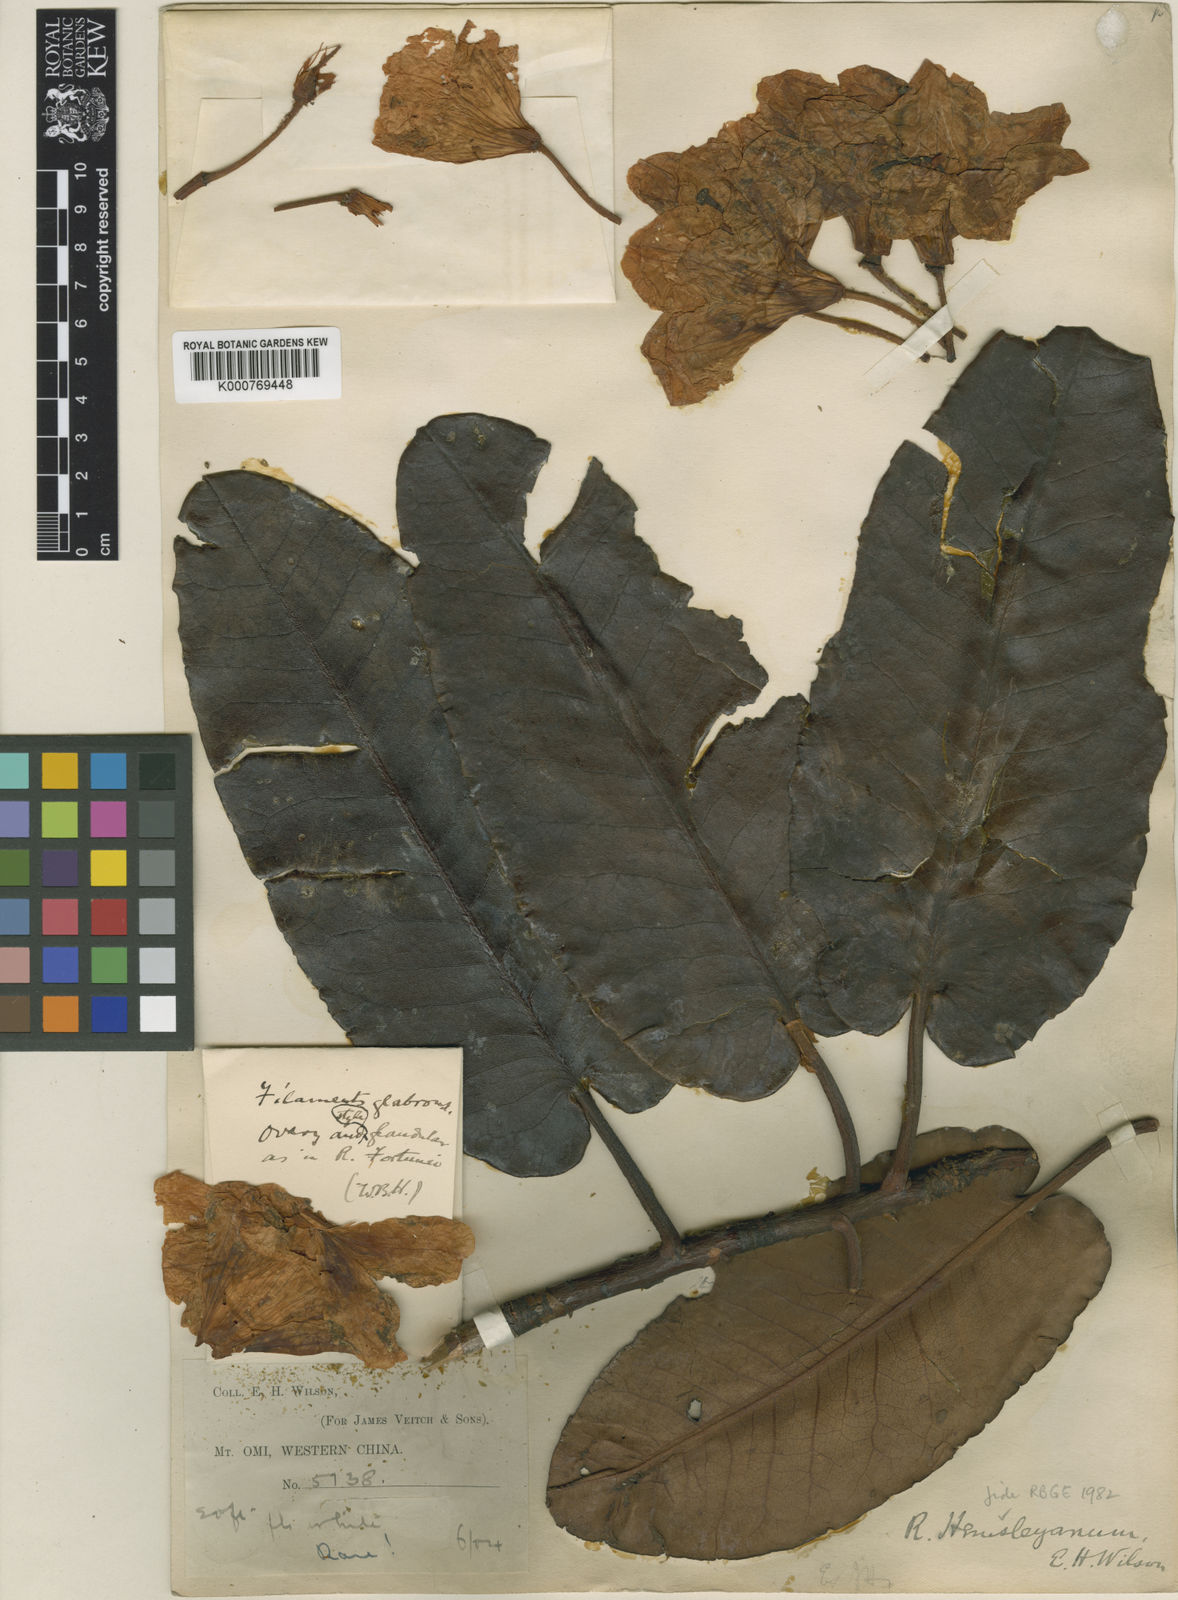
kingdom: Plantae
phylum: Tracheophyta
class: Magnoliopsida
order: Ericales
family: Ericaceae
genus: Rhododendron
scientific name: Rhododendron hemsleyanum
